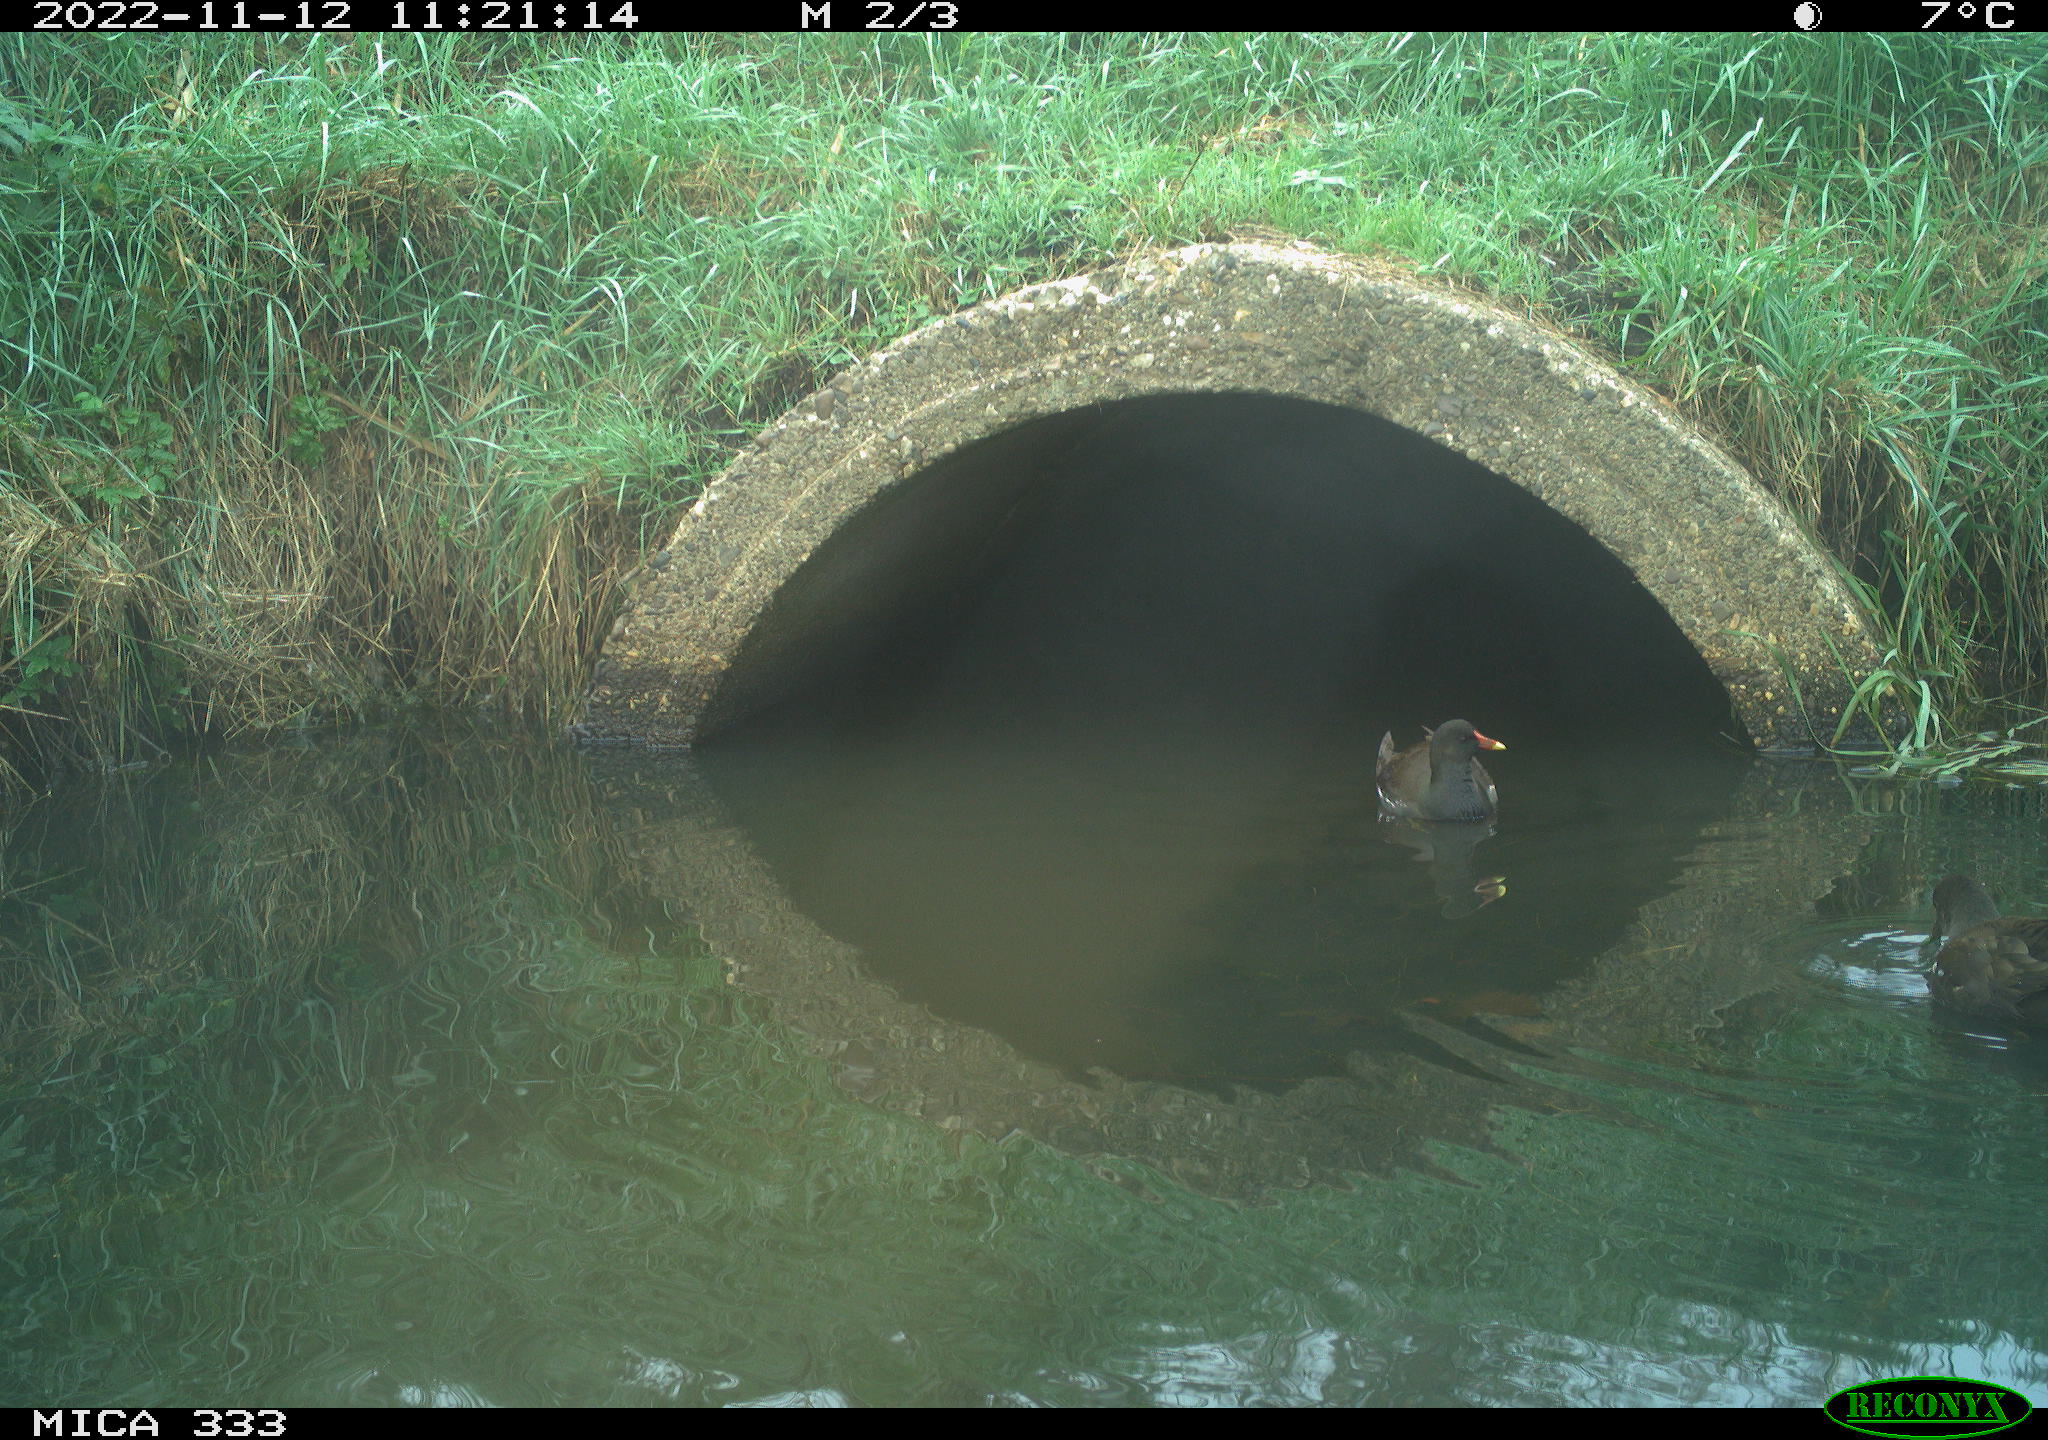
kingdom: Animalia
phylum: Chordata
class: Aves
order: Gruiformes
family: Rallidae
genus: Gallinula
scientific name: Gallinula chloropus
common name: Common moorhen
